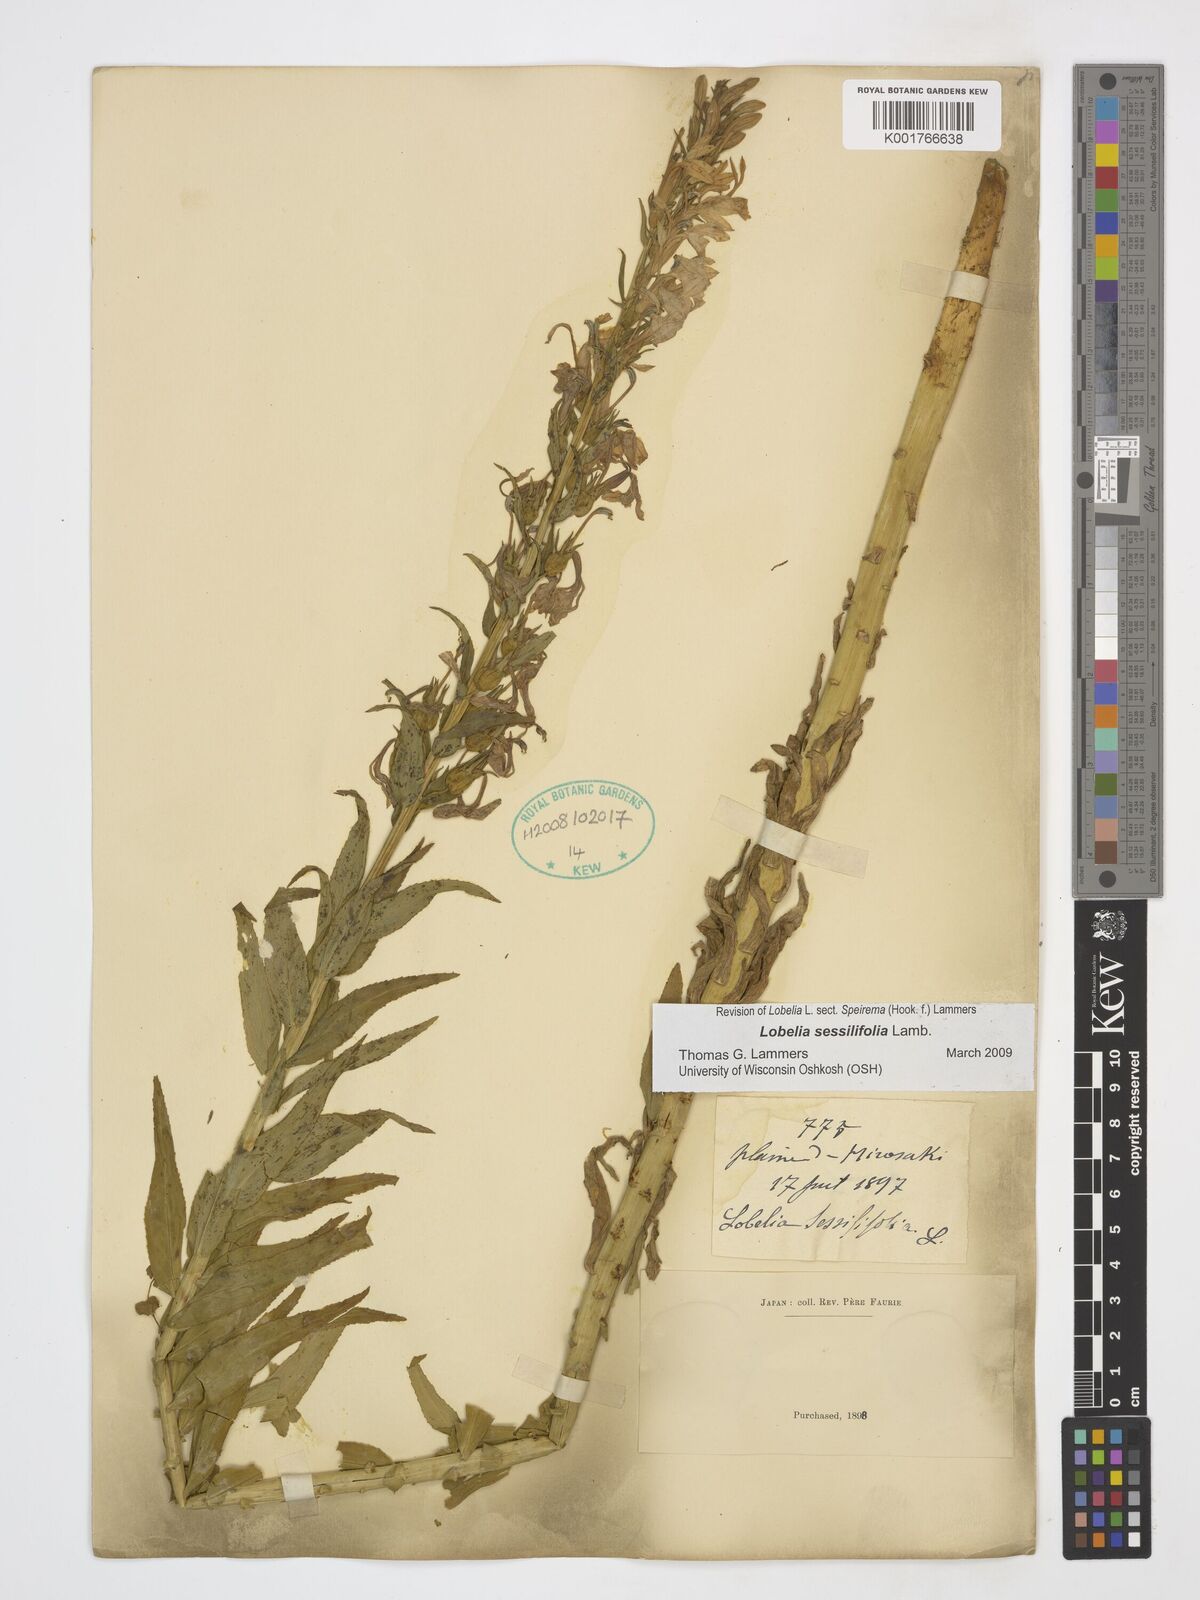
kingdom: Plantae
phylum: Tracheophyta
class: Magnoliopsida
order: Asterales
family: Campanulaceae
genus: Lobelia
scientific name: Lobelia sessilifolia
